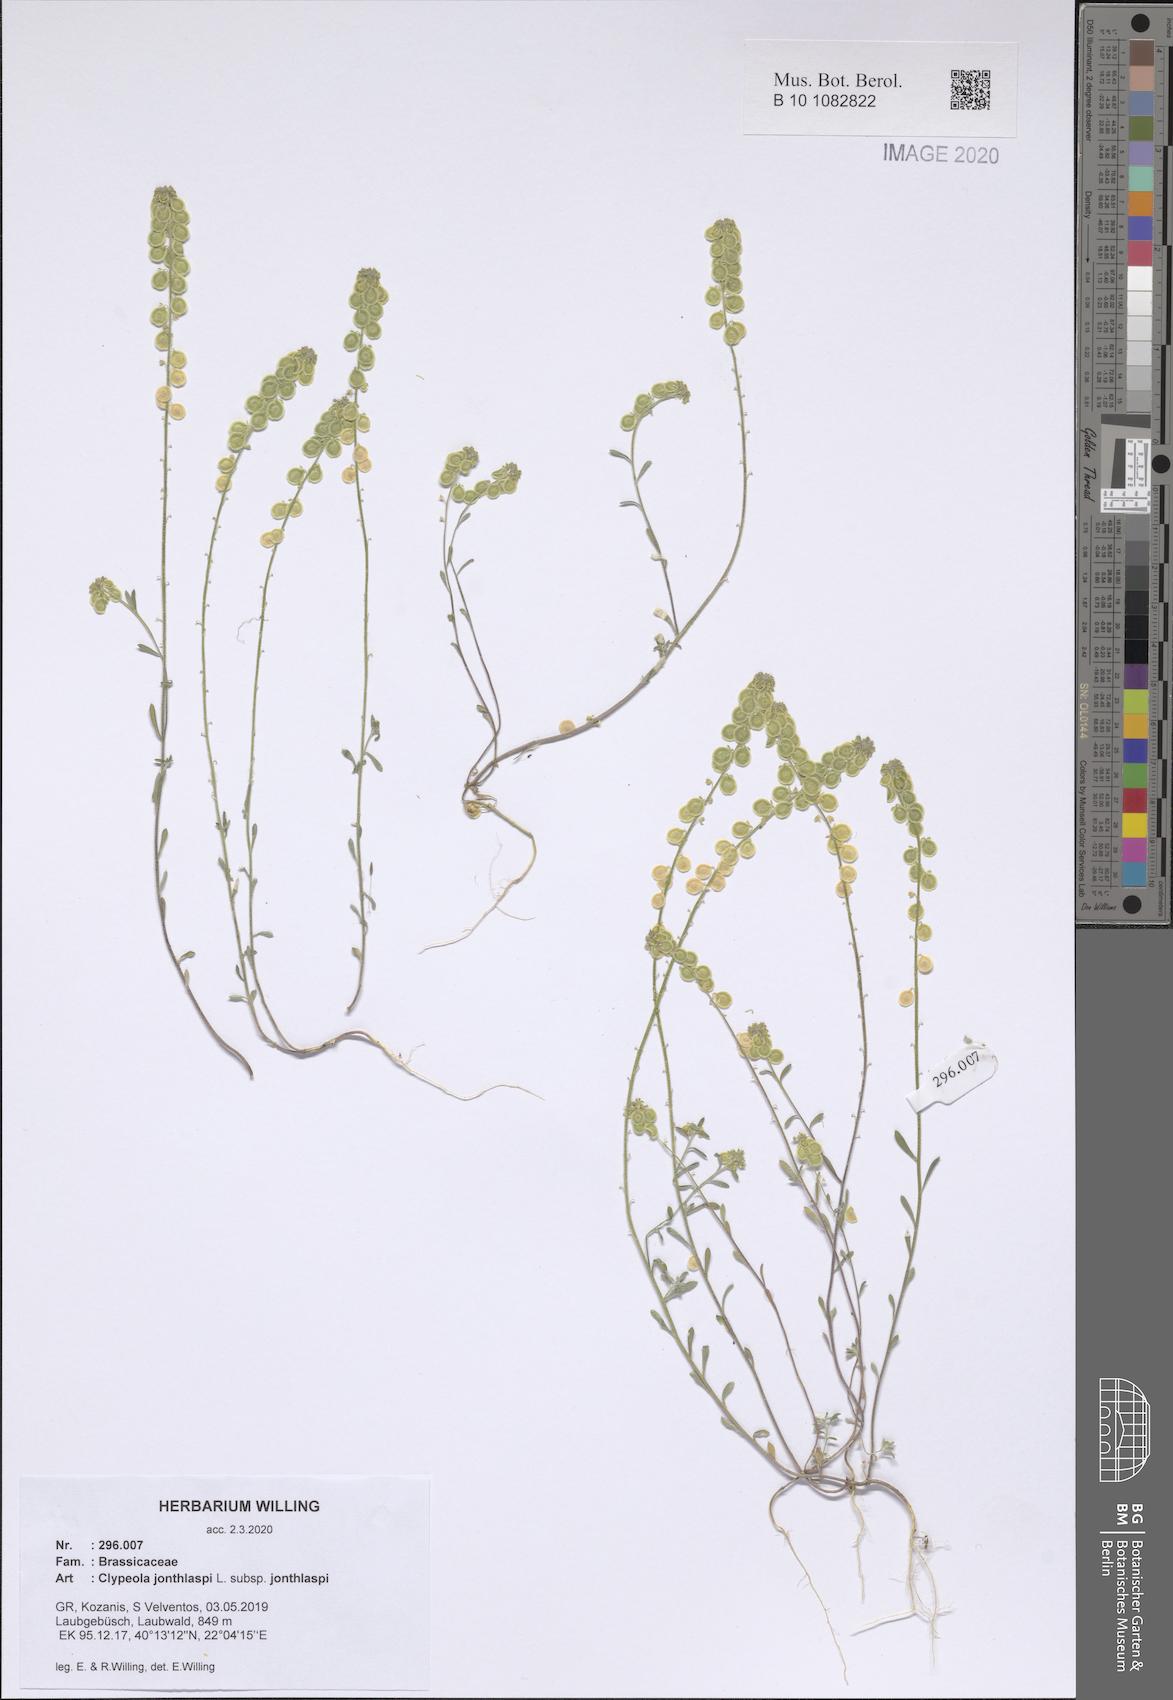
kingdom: Plantae
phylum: Tracheophyta
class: Magnoliopsida
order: Brassicales
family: Brassicaceae
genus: Clypeola
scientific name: Clypeola jonthlaspi
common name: Disk cress
